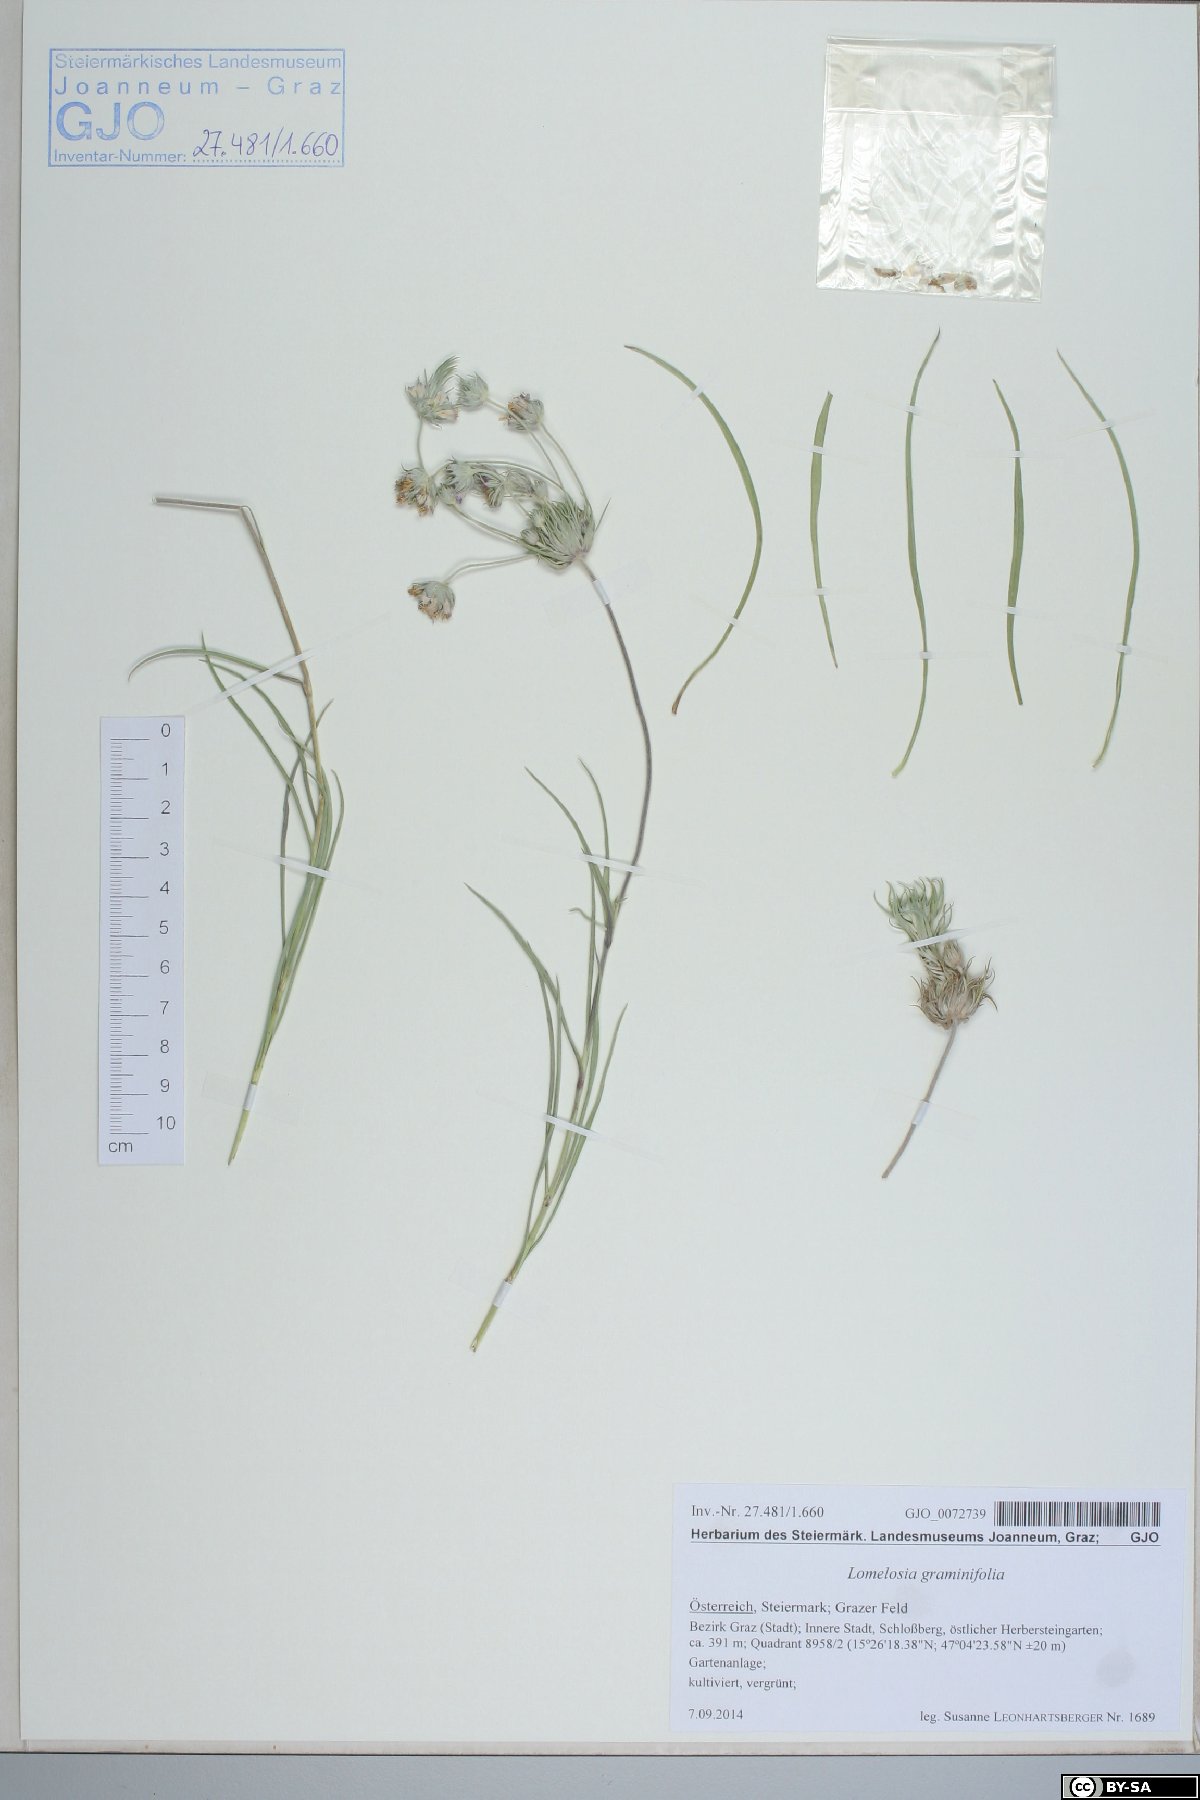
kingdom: Plantae
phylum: Tracheophyta
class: Magnoliopsida
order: Dipsacales
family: Caprifoliaceae
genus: Lomelosia
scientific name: Lomelosia graminifolia
